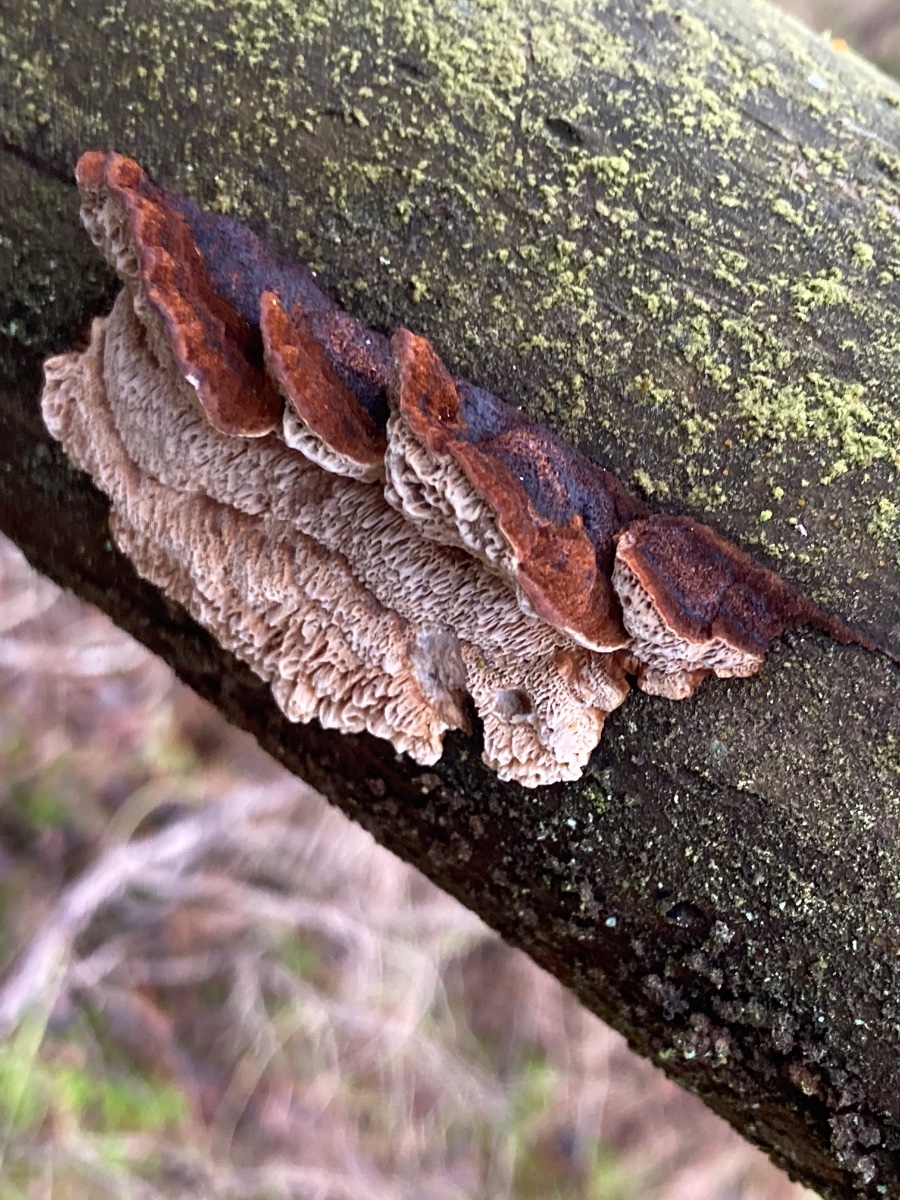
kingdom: Fungi
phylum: Basidiomycota
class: Agaricomycetes
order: Polyporales
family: Ischnodermataceae
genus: Ischnoderma
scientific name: Ischnoderma benzoinum
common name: gran-tjæreporesvamp
